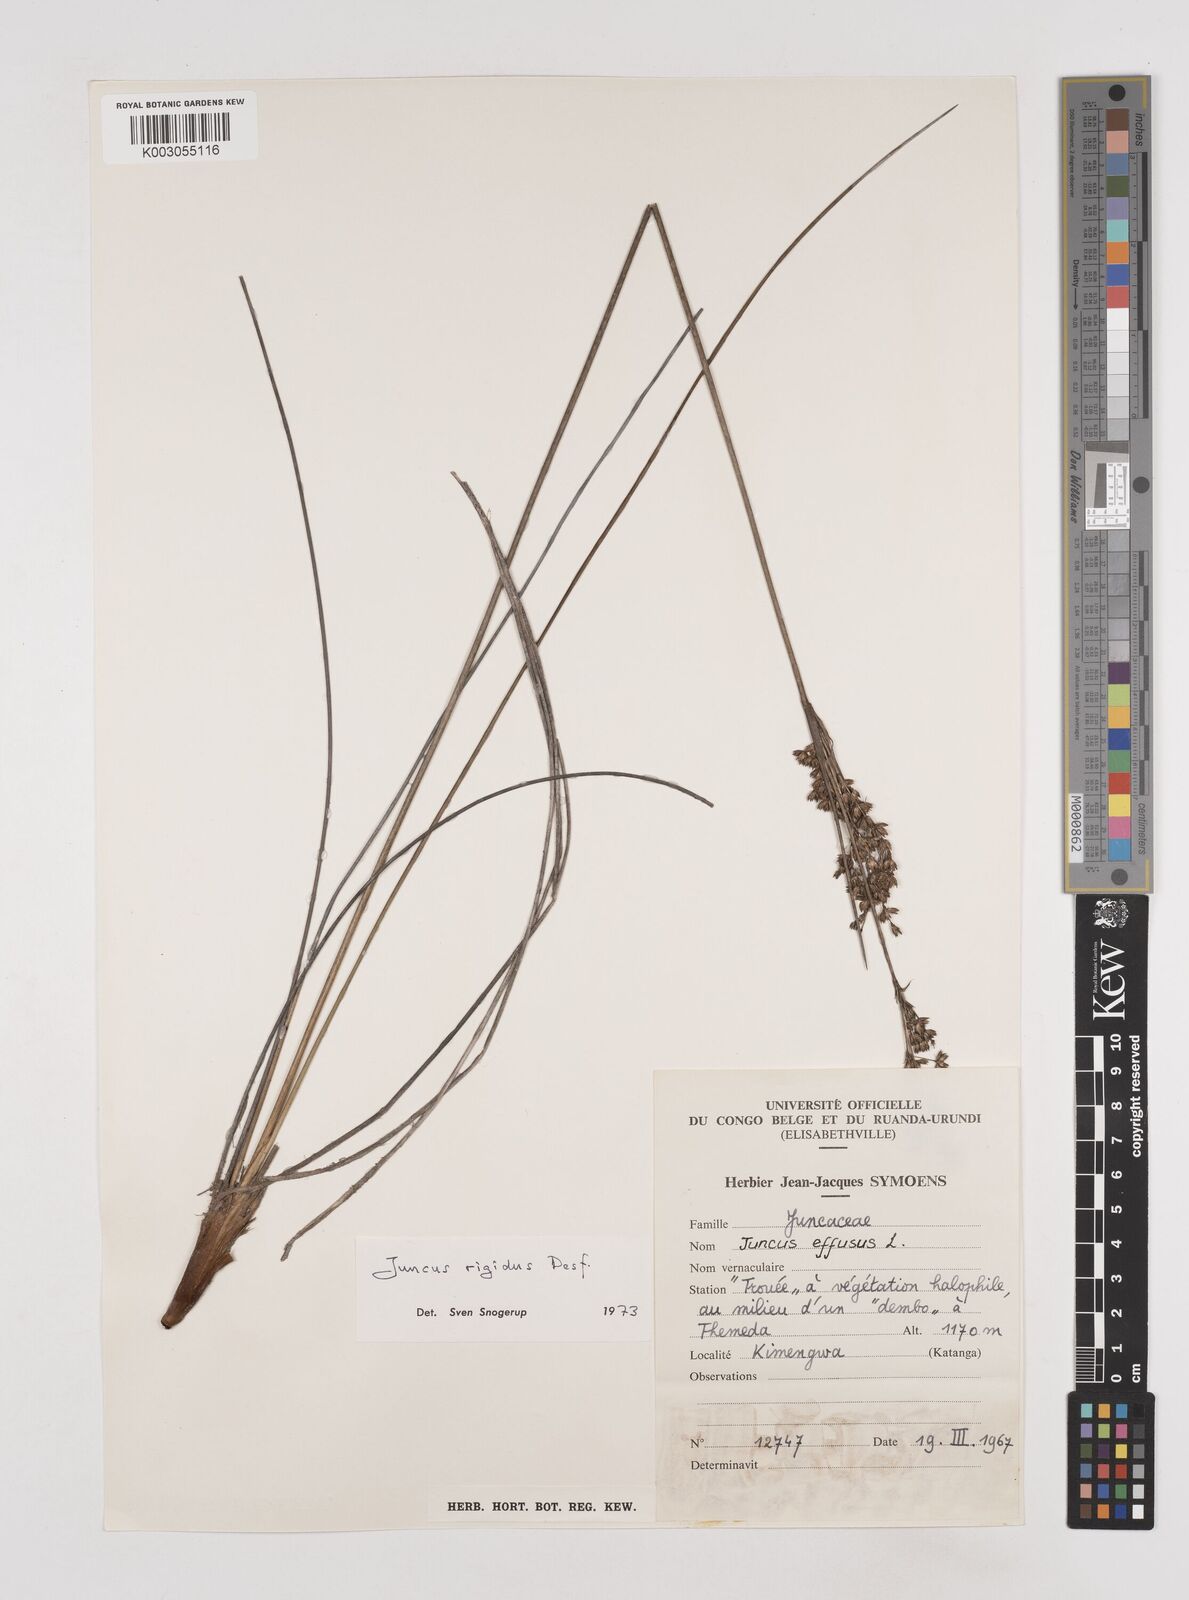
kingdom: Plantae
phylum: Tracheophyta
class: Liliopsida
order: Poales
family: Juncaceae
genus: Juncus
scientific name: Juncus rigidus
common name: Hard sea rush
